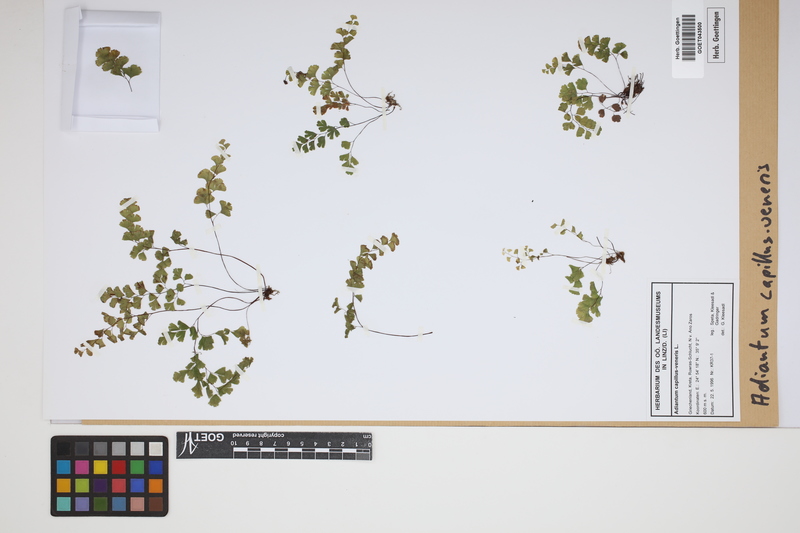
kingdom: Plantae
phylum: Tracheophyta
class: Polypodiopsida
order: Polypodiales
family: Pteridaceae
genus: Adiantum
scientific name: Adiantum capillus-veneris
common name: Maidenhair fern
